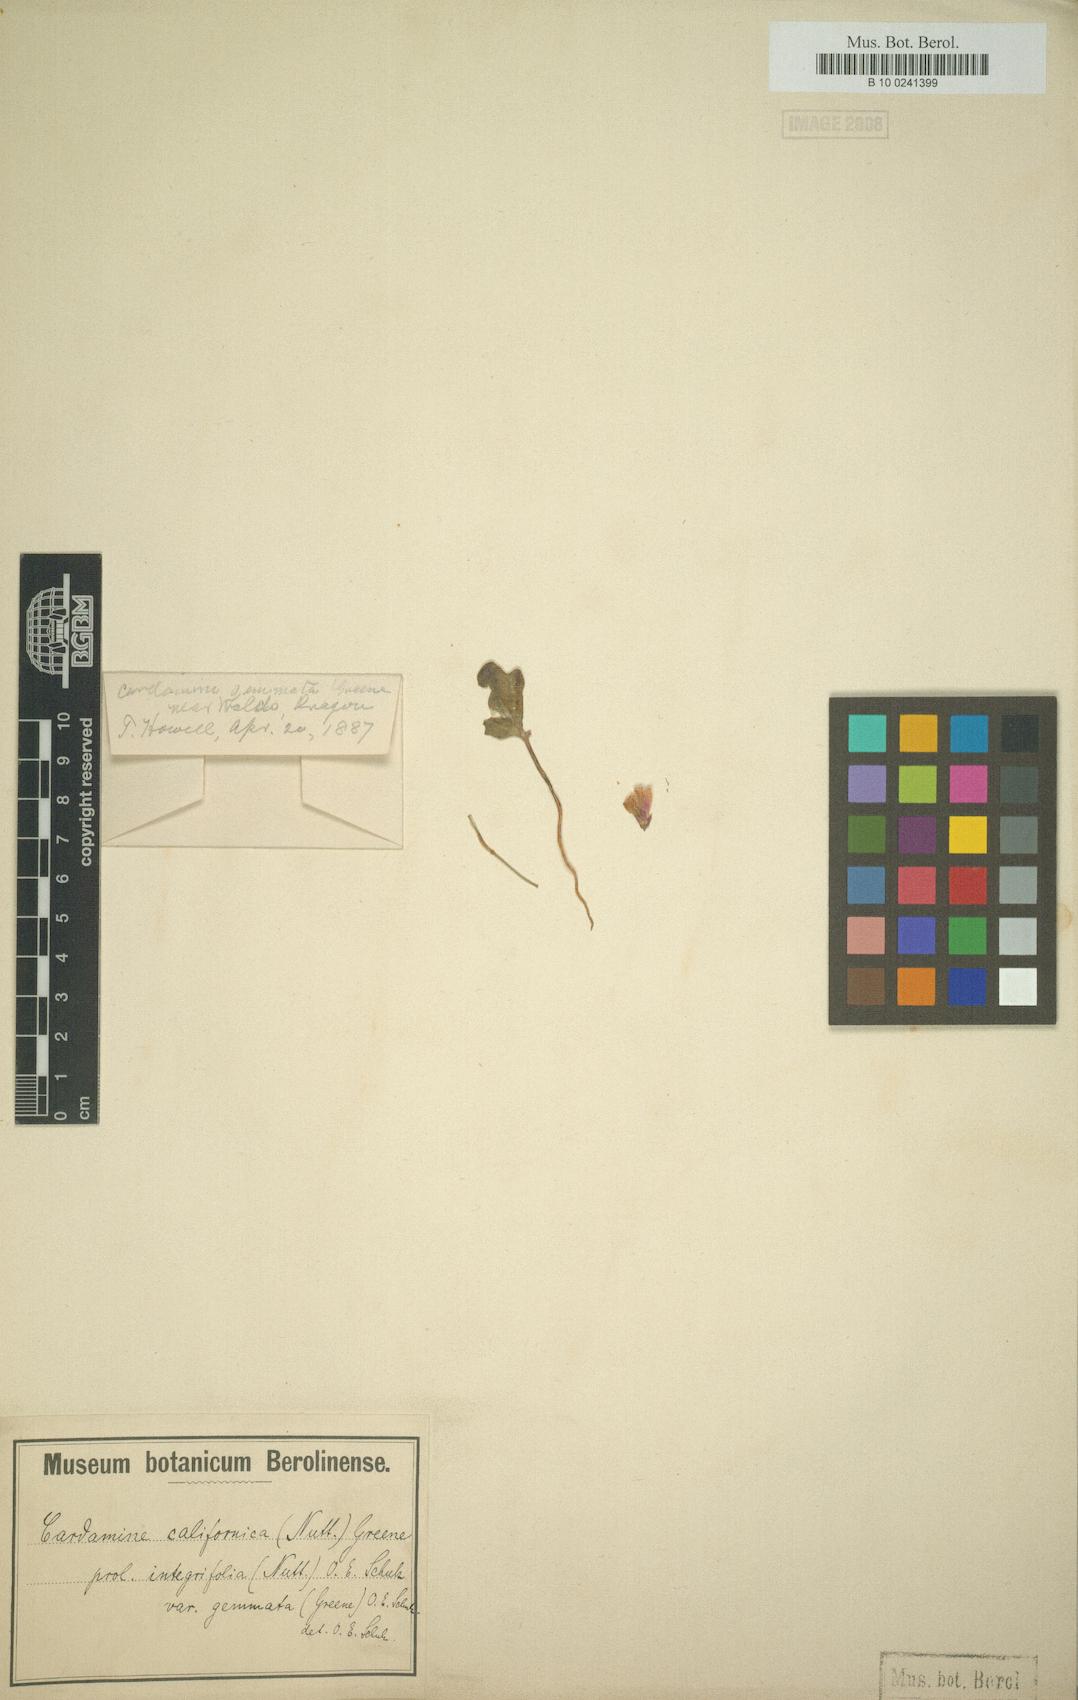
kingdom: Plantae
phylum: Tracheophyta
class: Magnoliopsida
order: Brassicales
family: Brassicaceae
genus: Cardamine
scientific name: Cardamine nuttallii
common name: Nuttall's toothwort
